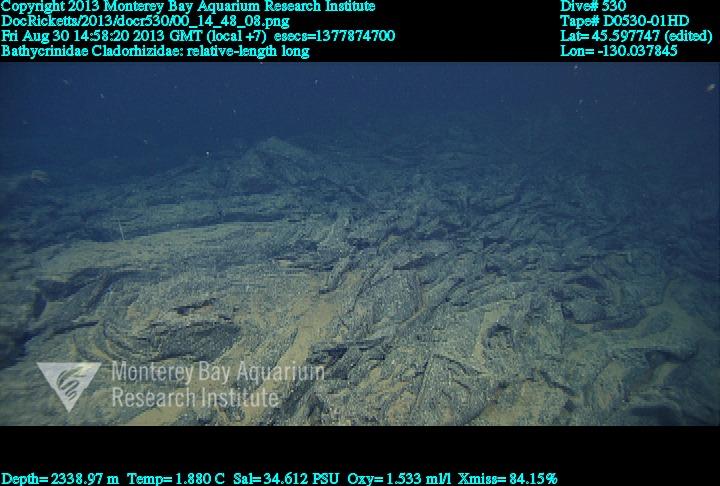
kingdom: Animalia
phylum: Porifera
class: Demospongiae
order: Poecilosclerida
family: Cladorhizidae
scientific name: Cladorhizidae
